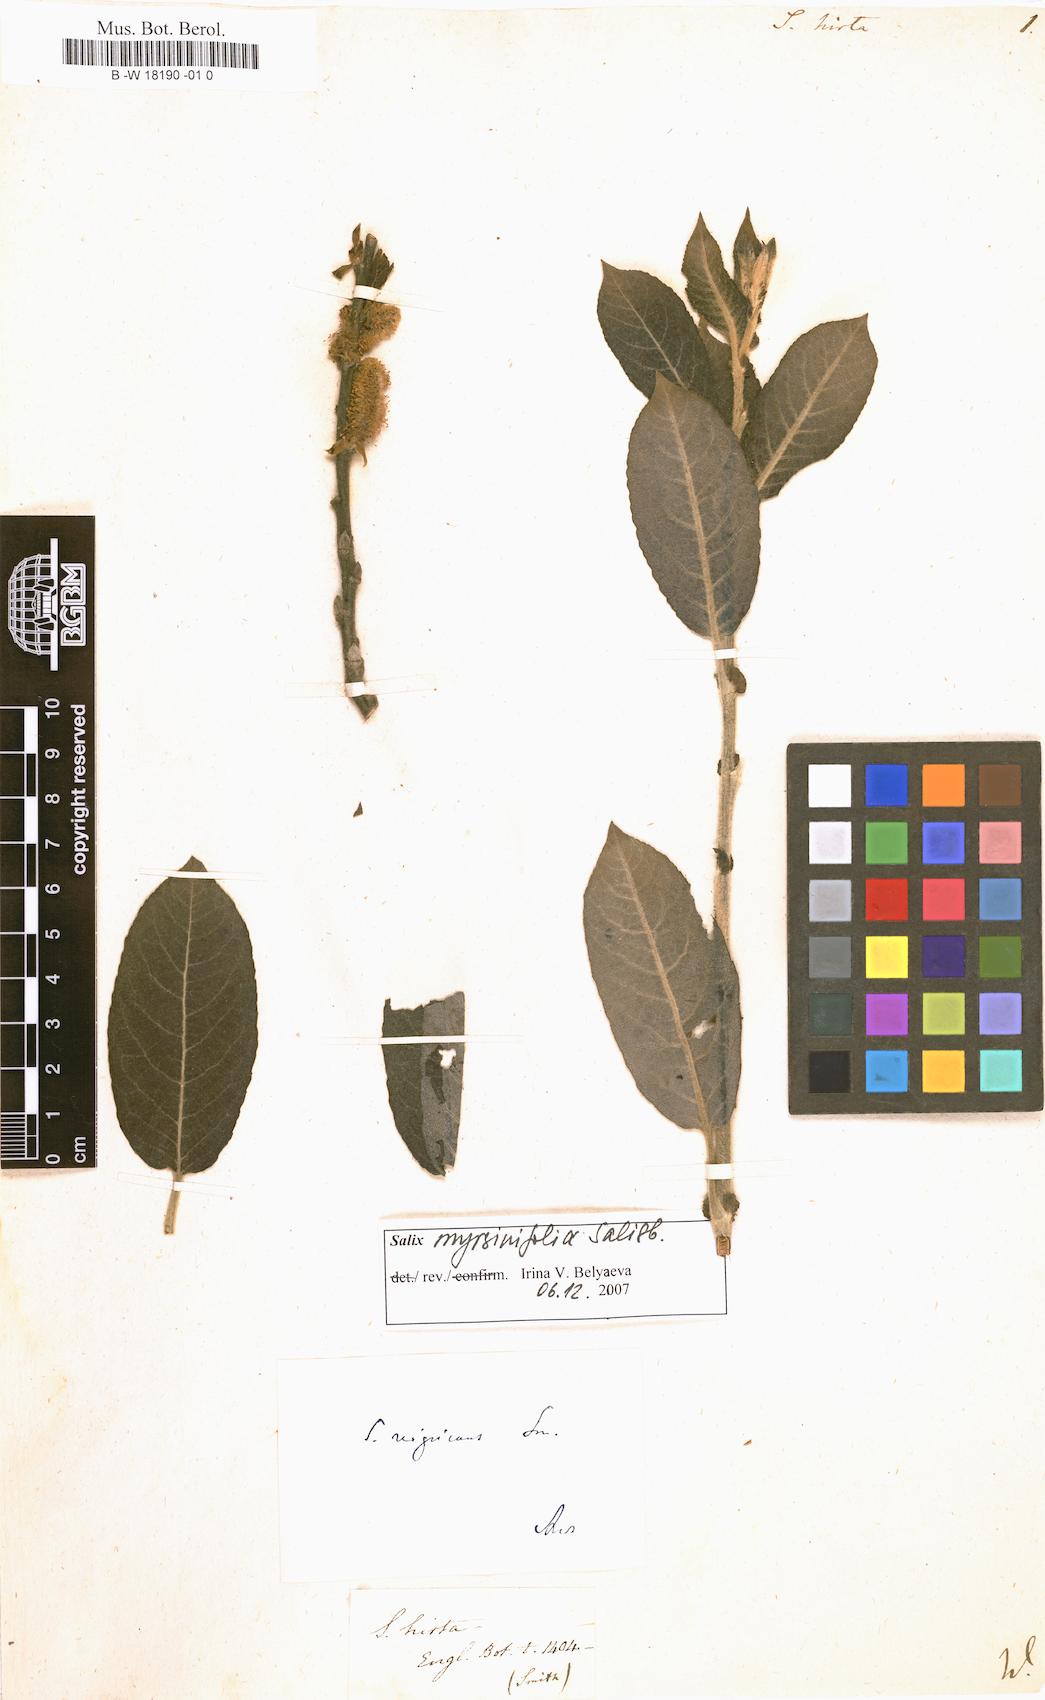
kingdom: Plantae
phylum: Tracheophyta
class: Magnoliopsida
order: Malpighiales
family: Salicaceae
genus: Salix
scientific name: Salix myrsinifolia
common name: Dark-leaved willow
